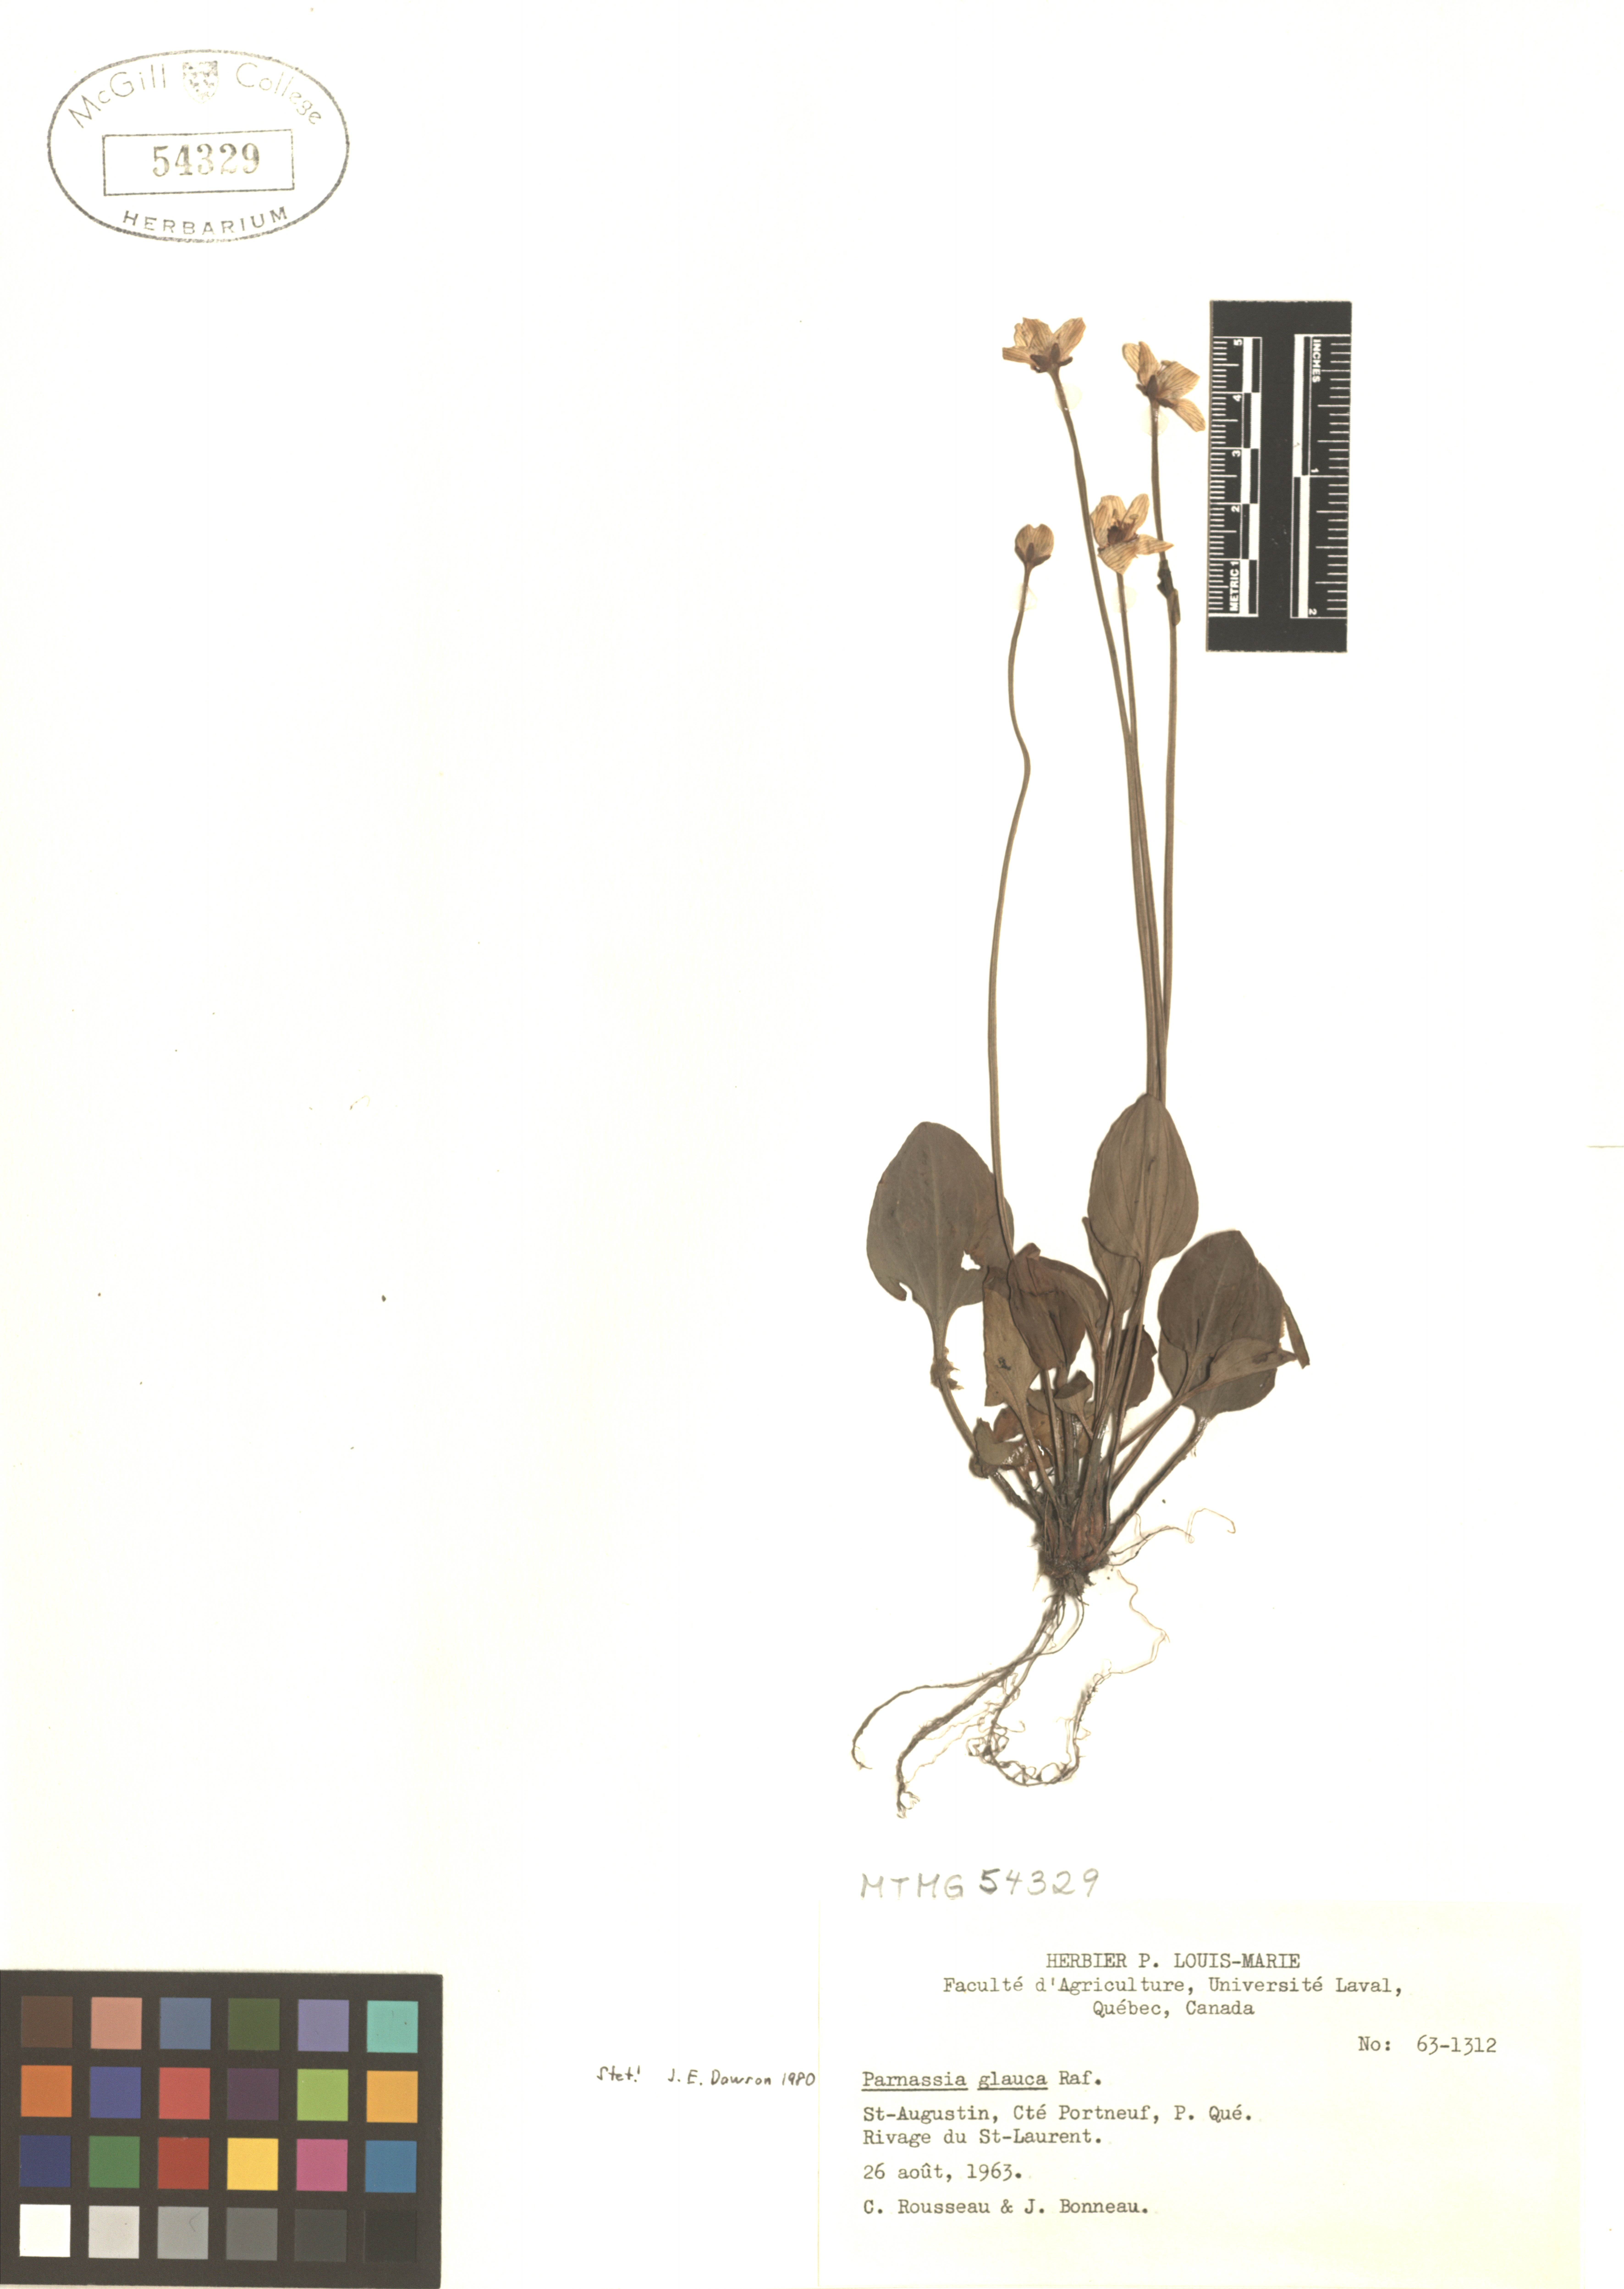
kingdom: Plantae
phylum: Tracheophyta
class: Magnoliopsida
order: Celastrales
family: Parnassiaceae
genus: Parnassia
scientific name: Parnassia glauca
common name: American grass-of-parnassus
